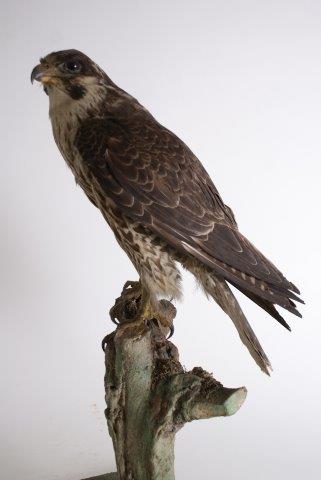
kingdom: Animalia
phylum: Chordata
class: Aves
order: Falconiformes
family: Falconidae
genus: Falco
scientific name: Falco peregrinus
